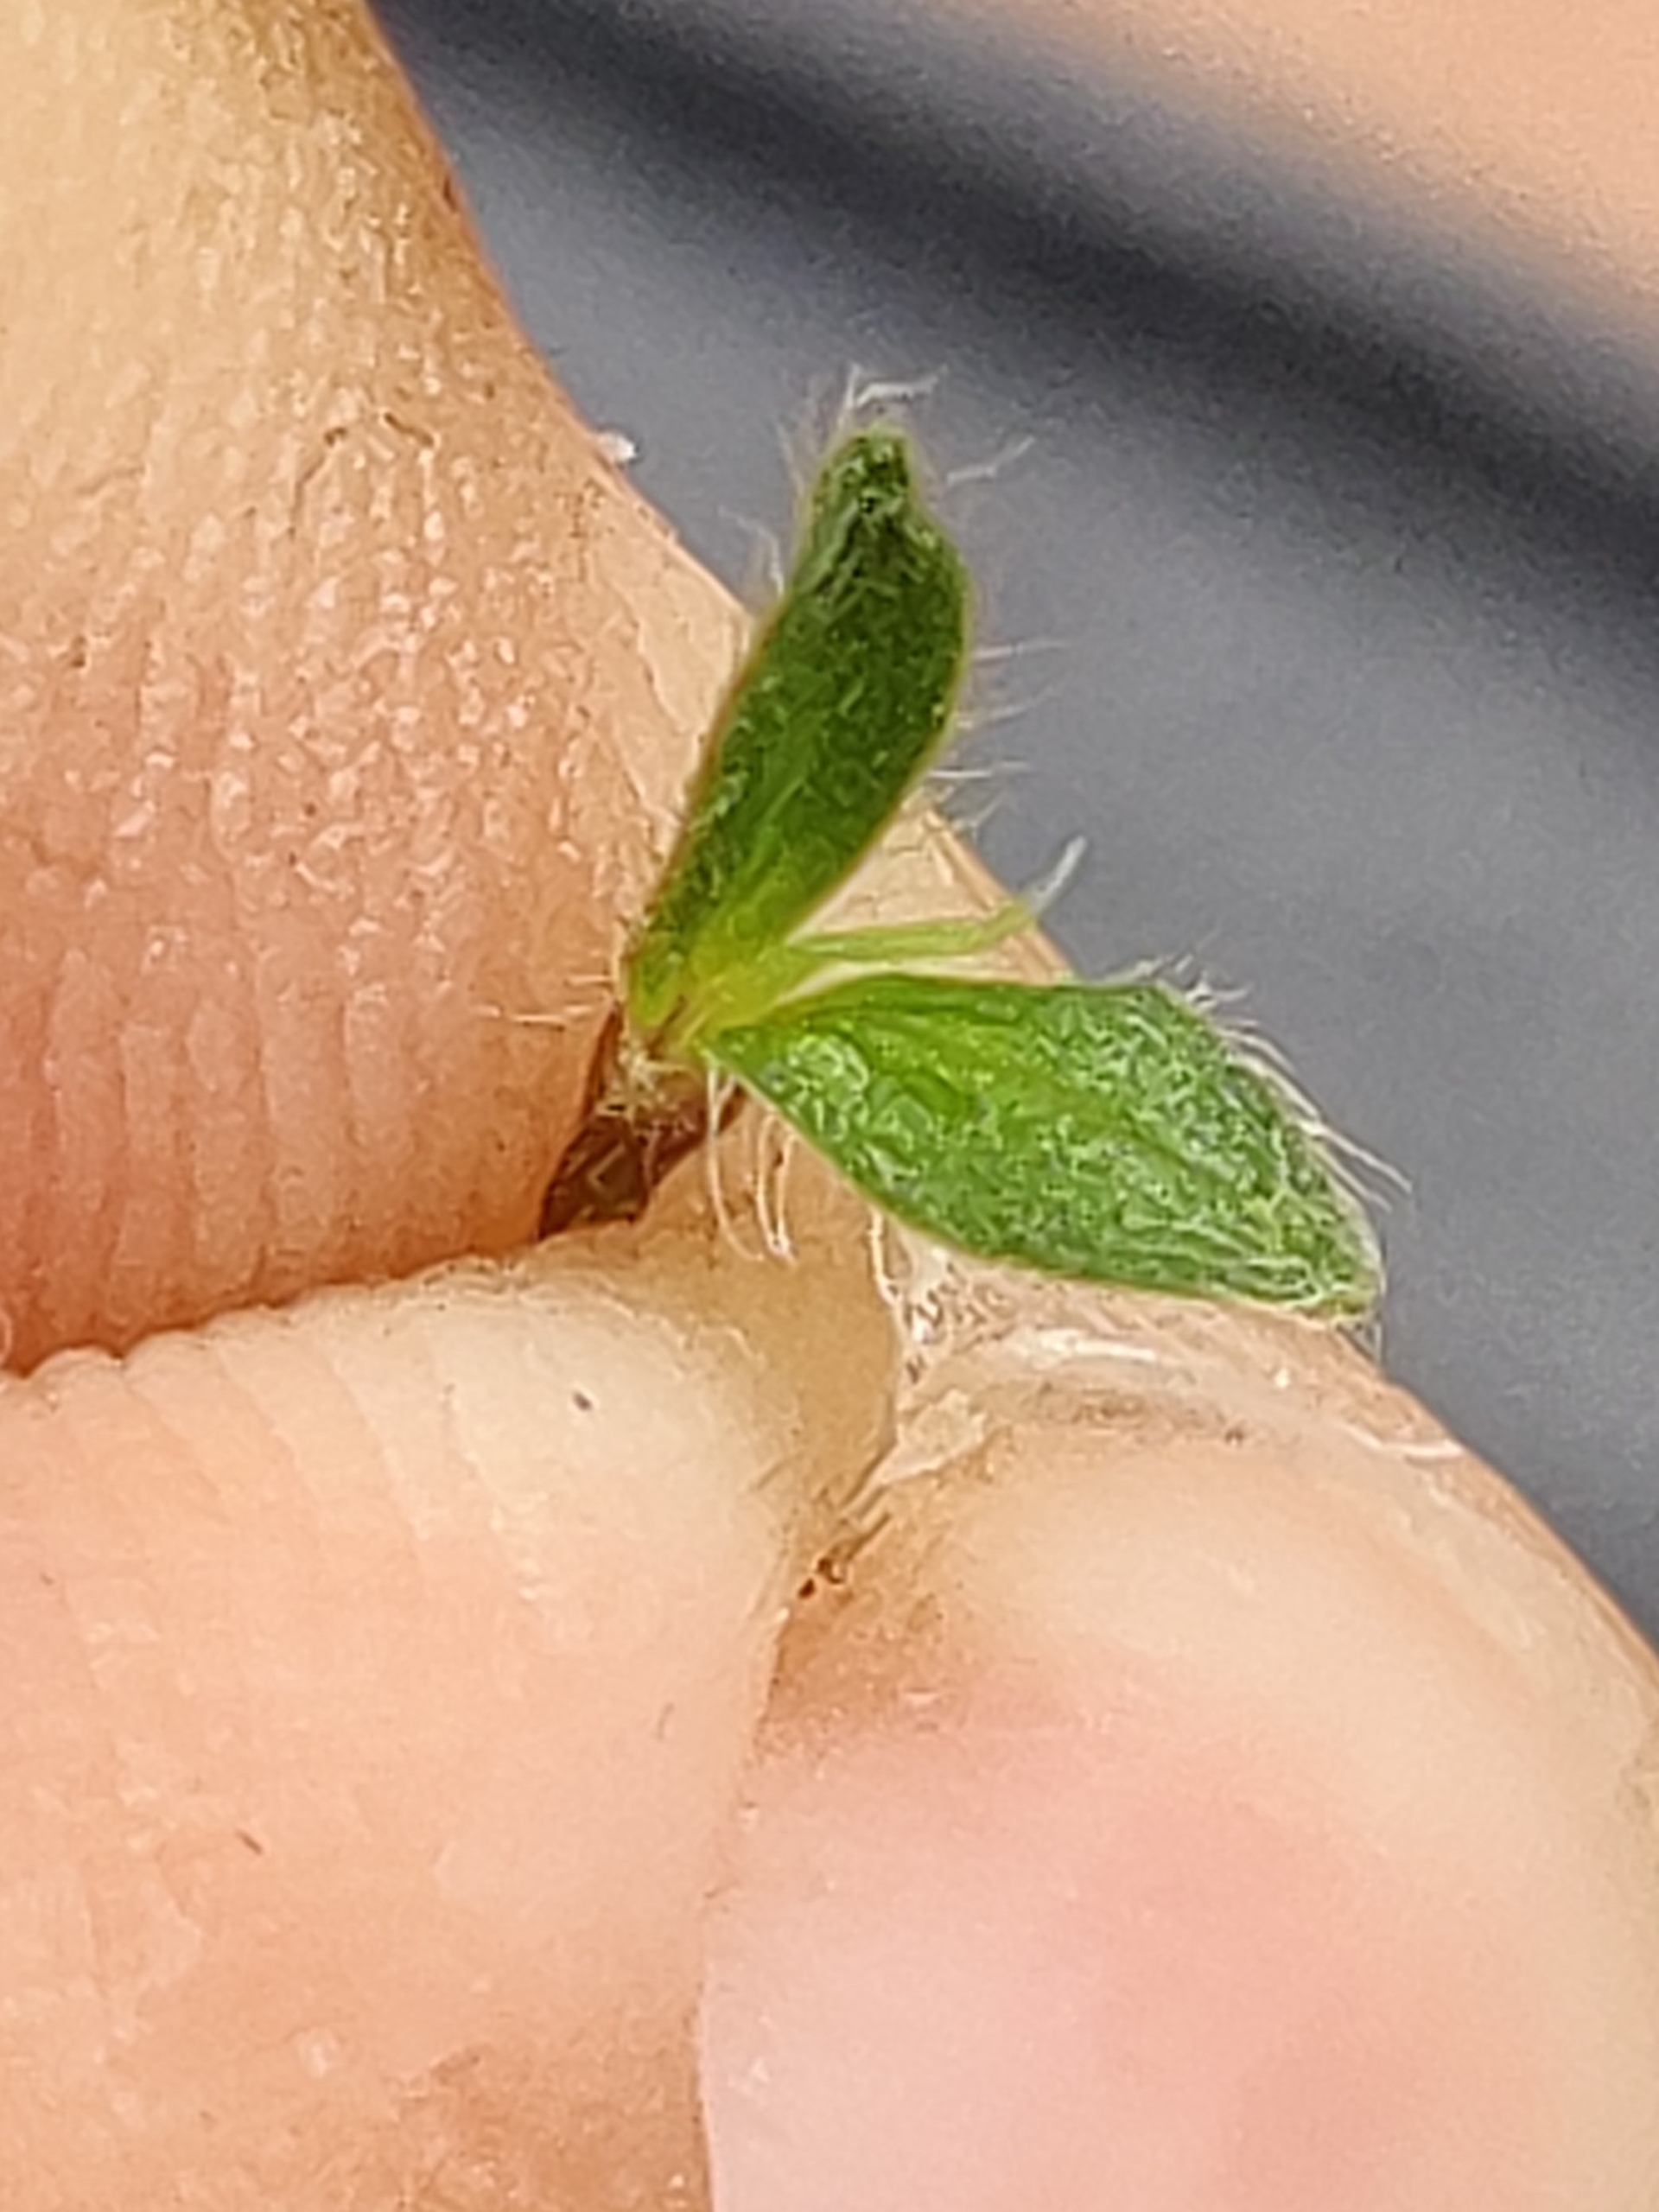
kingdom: Plantae
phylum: Tracheophyta
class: Magnoliopsida
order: Caryophyllales
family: Caryophyllaceae
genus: Cerastium
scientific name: Cerastium fontanum
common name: Almindelig hønsetarm
